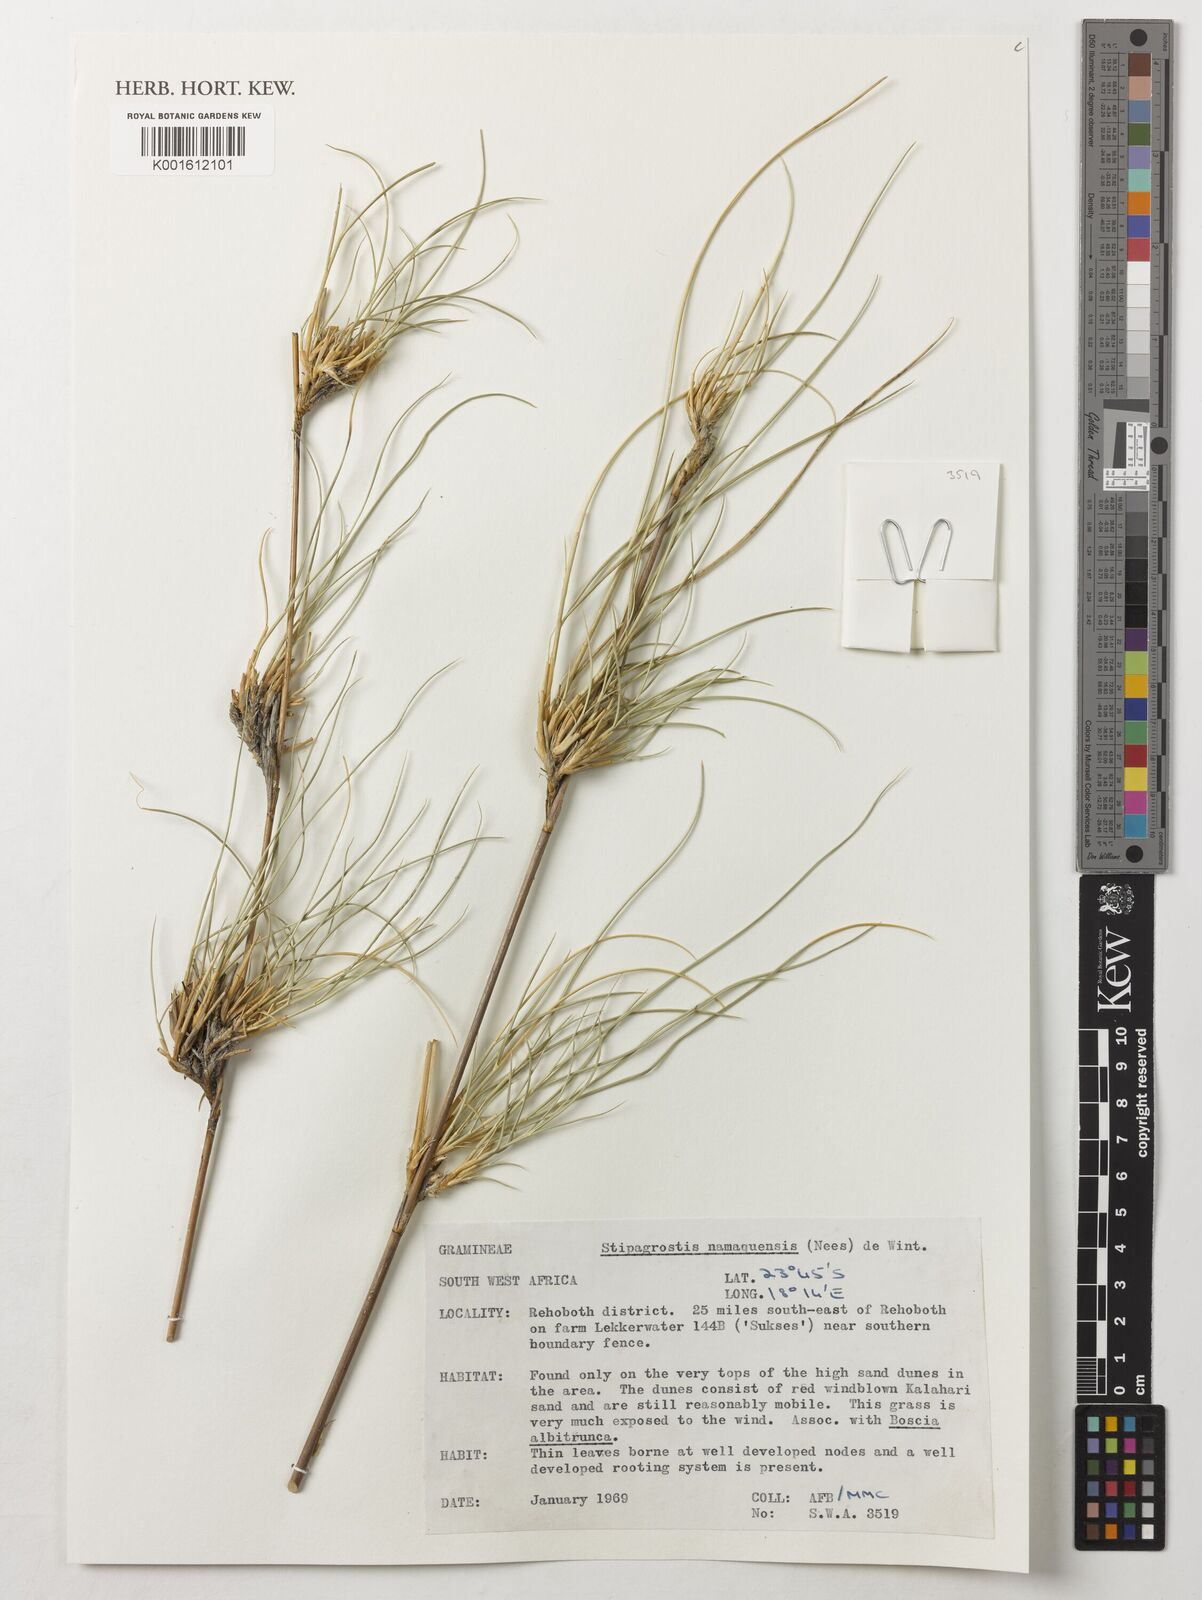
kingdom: Plantae
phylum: Tracheophyta
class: Liliopsida
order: Poales
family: Poaceae
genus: Stipagrostis
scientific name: Stipagrostis namaquensis
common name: River bushman grass
